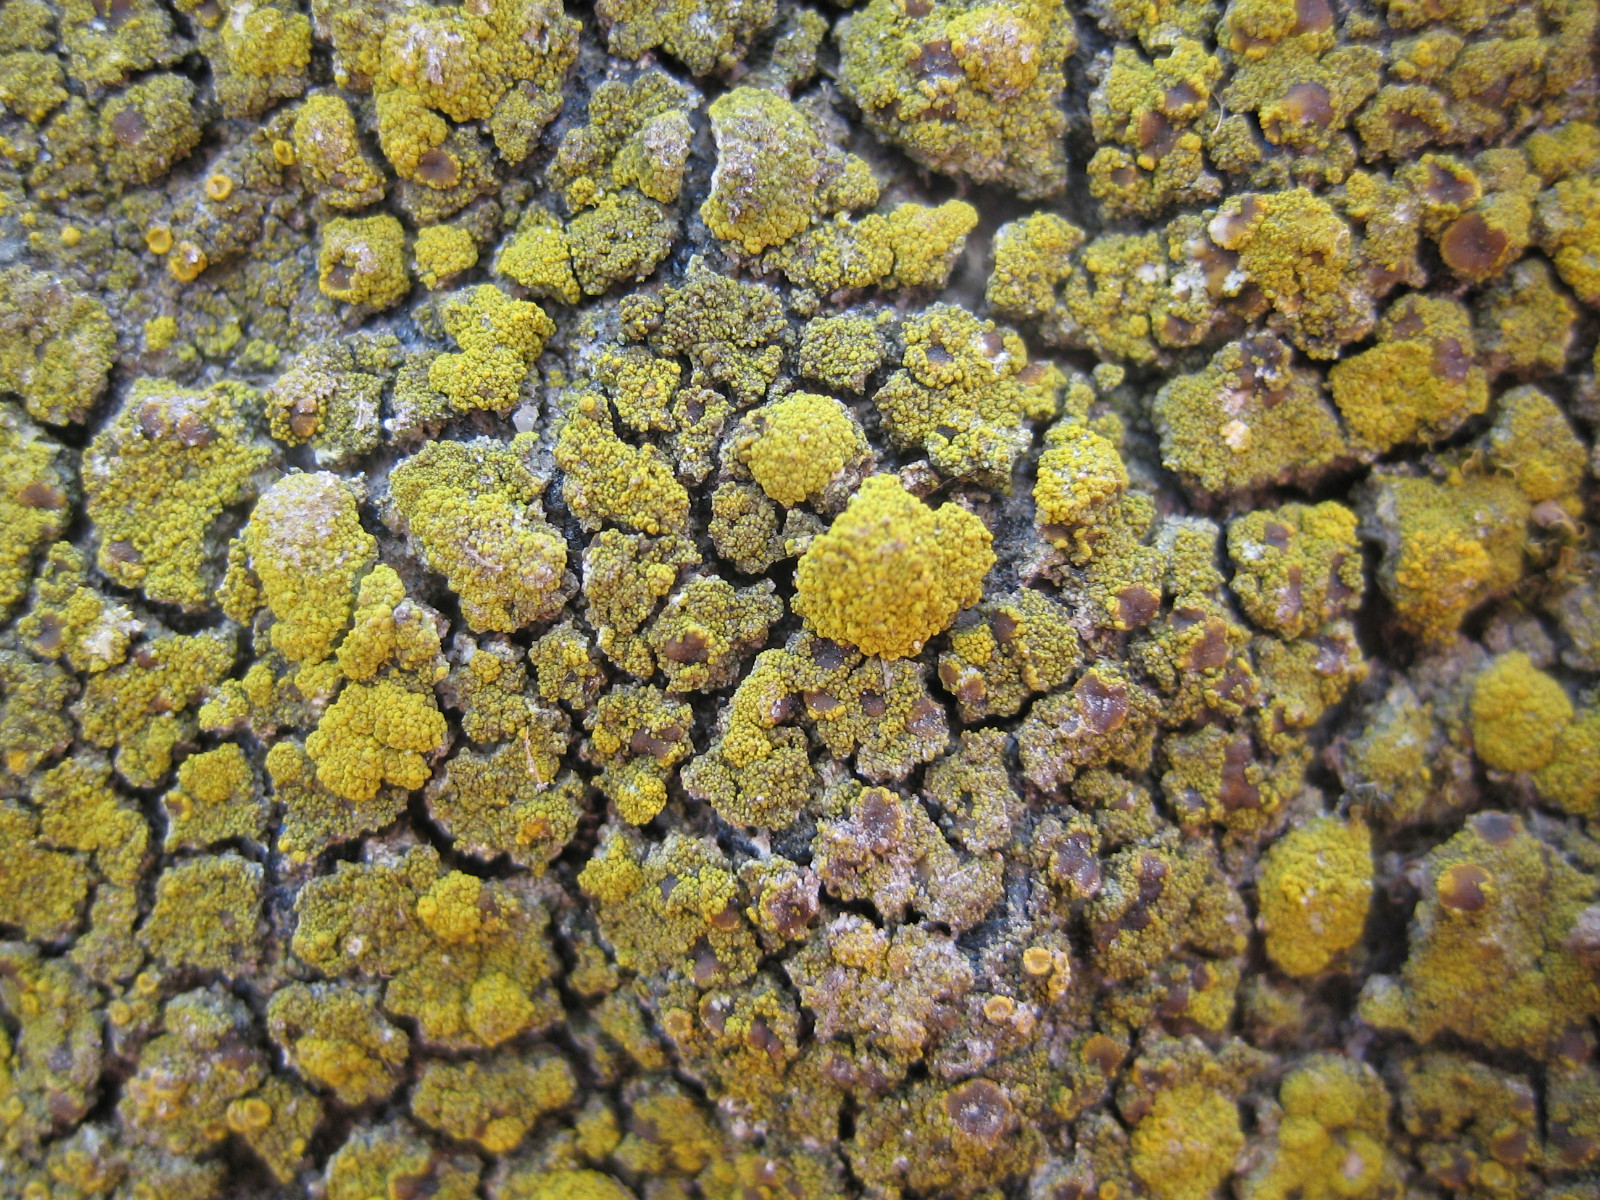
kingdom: Fungi
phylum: Ascomycota
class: Candelariomycetes
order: Candelariales
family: Candelariaceae
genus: Candelariella
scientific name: Candelariella vitellina
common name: almindelig æggeblommelav
